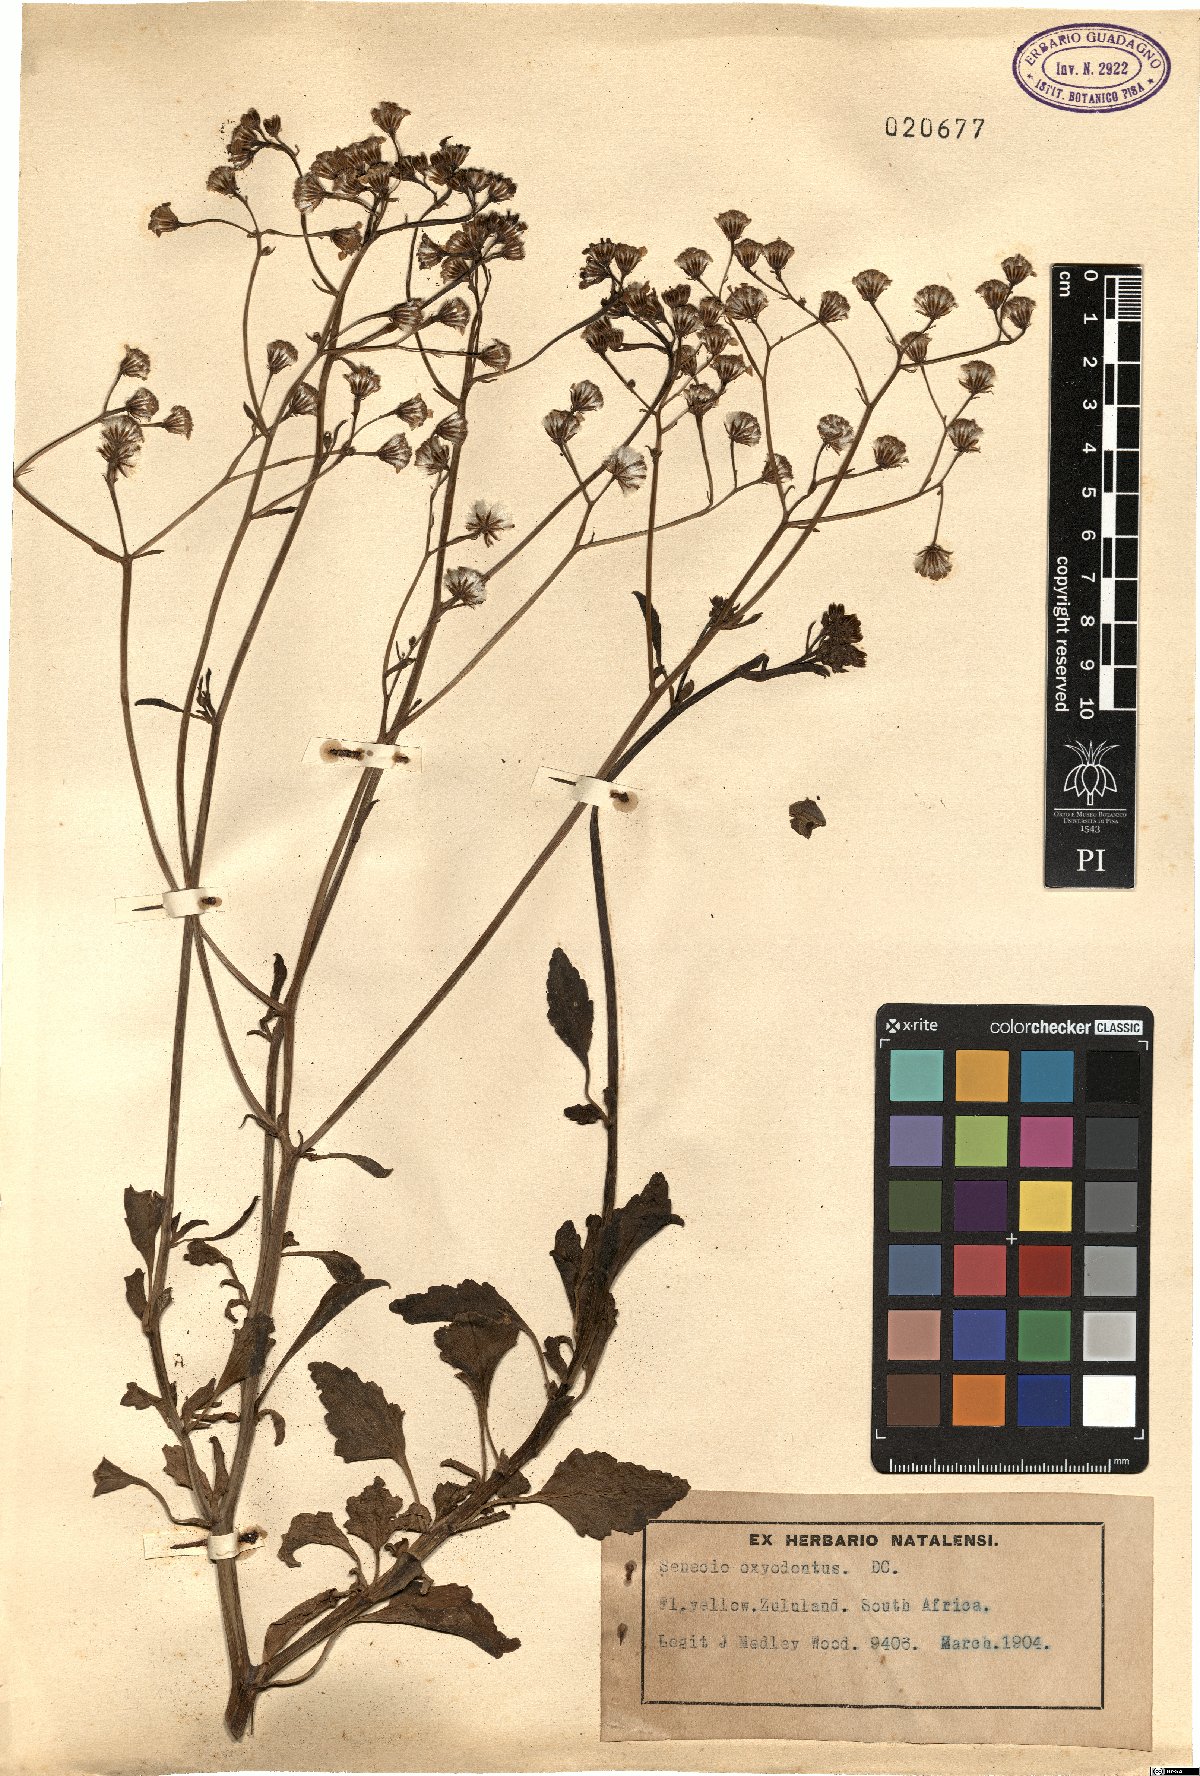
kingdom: Plantae
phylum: Tracheophyta
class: Magnoliopsida
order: Asterales
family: Asteraceae
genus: Senecio
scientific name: Senecio oxyodontus
